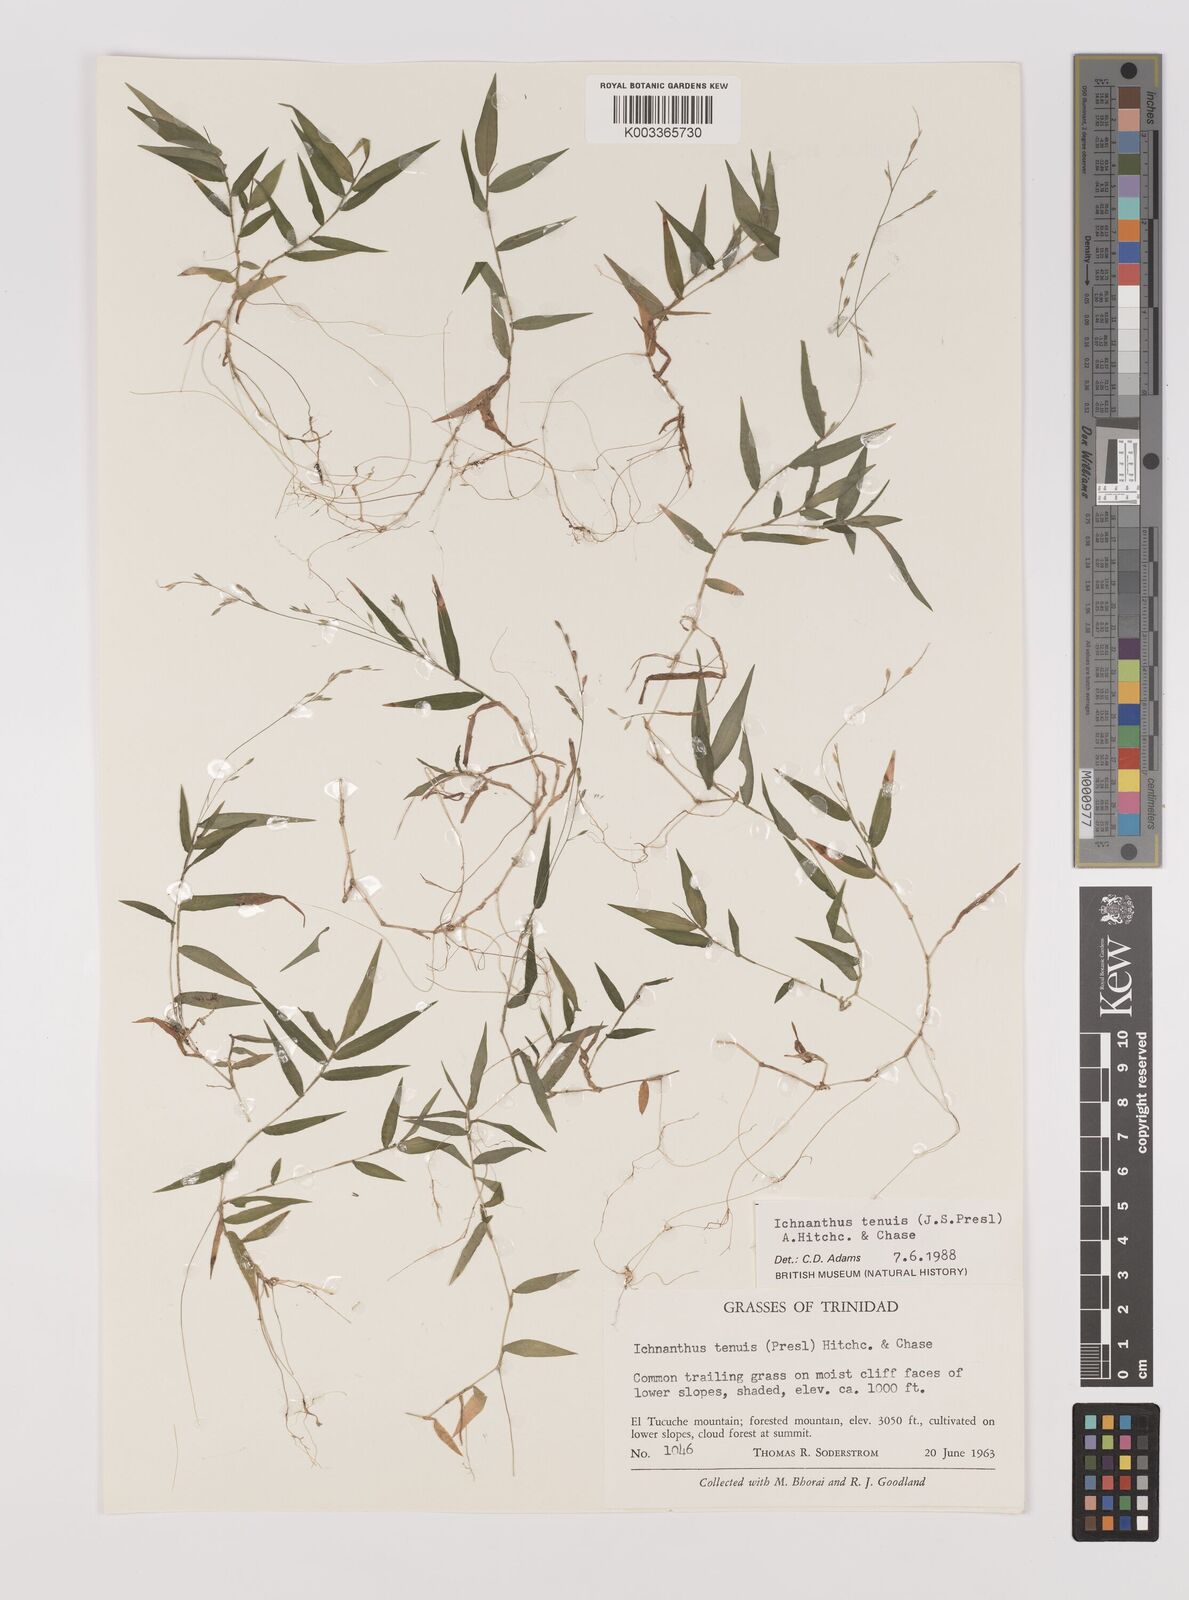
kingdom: Plantae
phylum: Tracheophyta
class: Liliopsida
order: Poales
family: Poaceae
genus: Ichnanthus
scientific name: Ichnanthus tenuis
